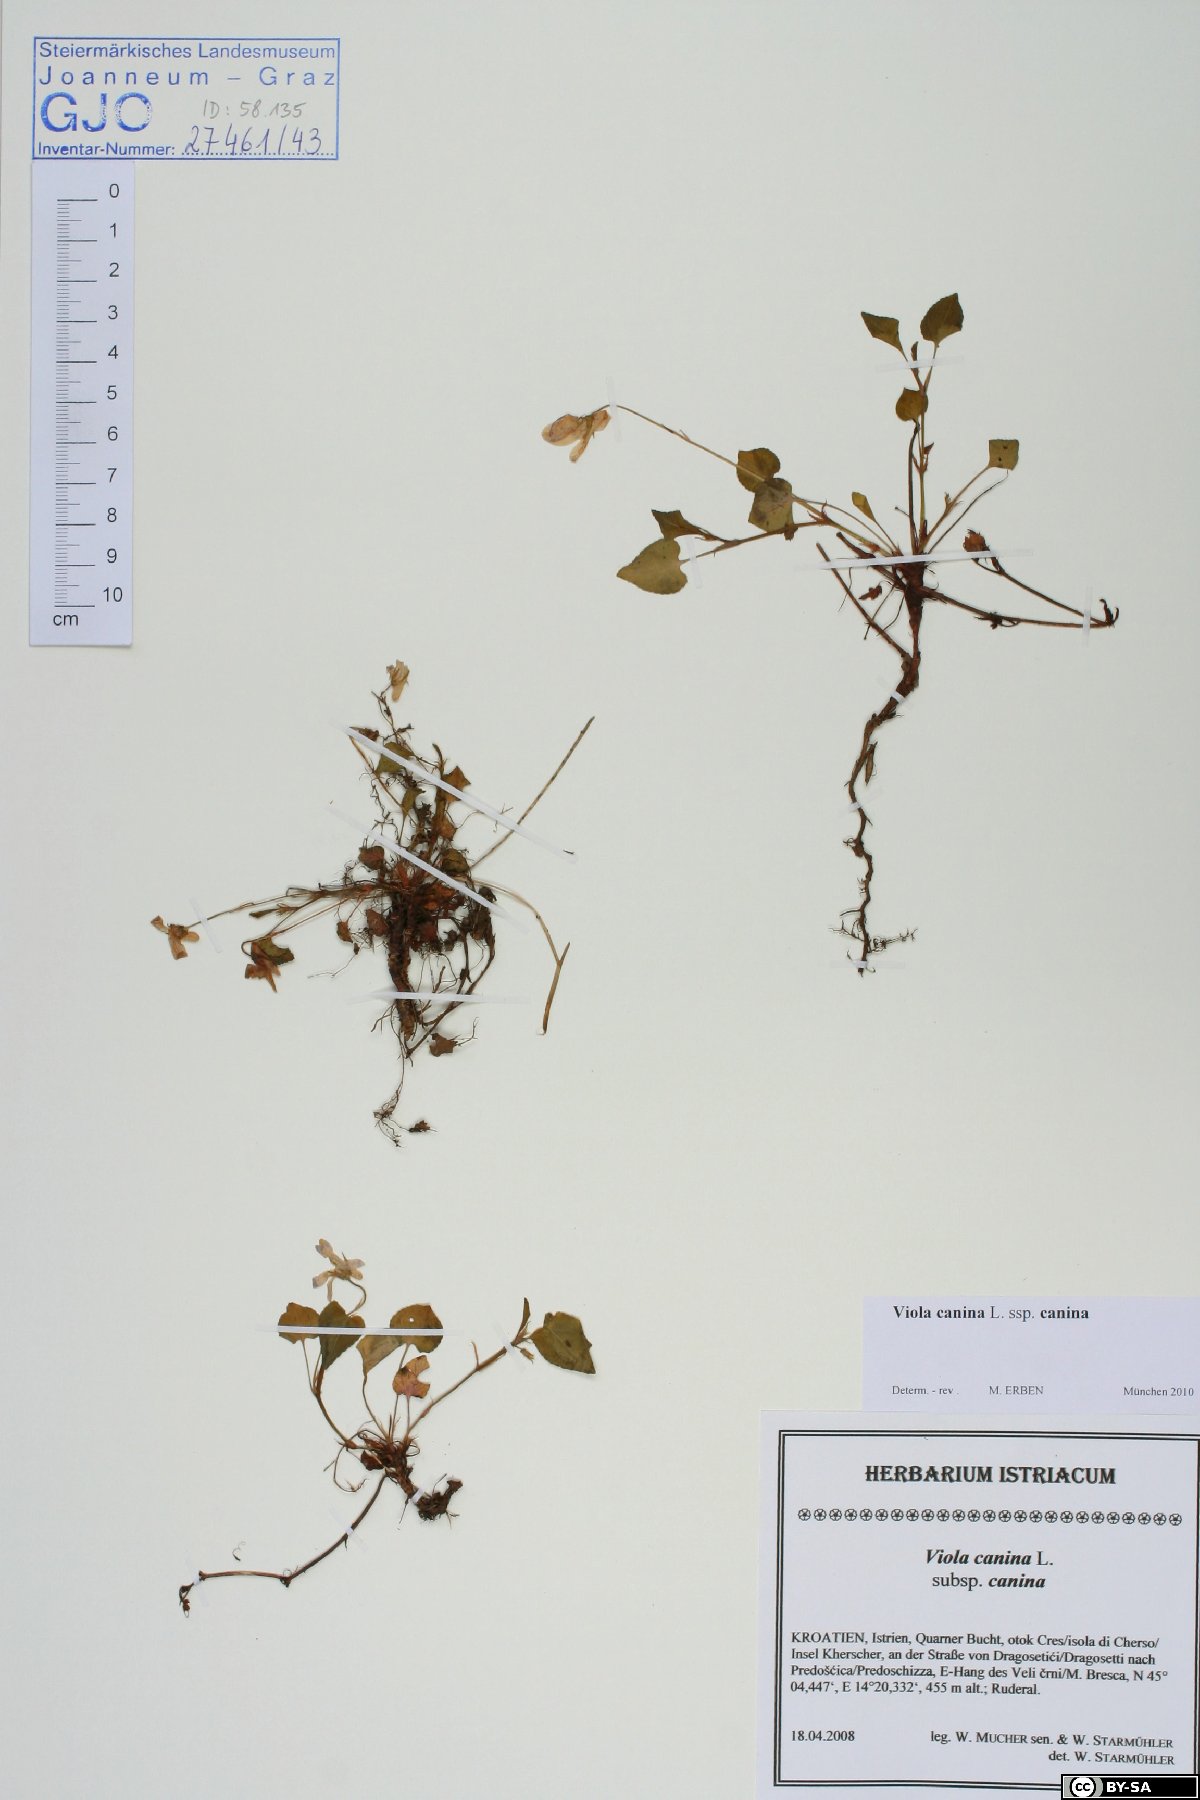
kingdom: Plantae
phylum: Tracheophyta
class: Magnoliopsida
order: Malpighiales
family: Violaceae
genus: Viola
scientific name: Viola canina
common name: Heath dog-violet
